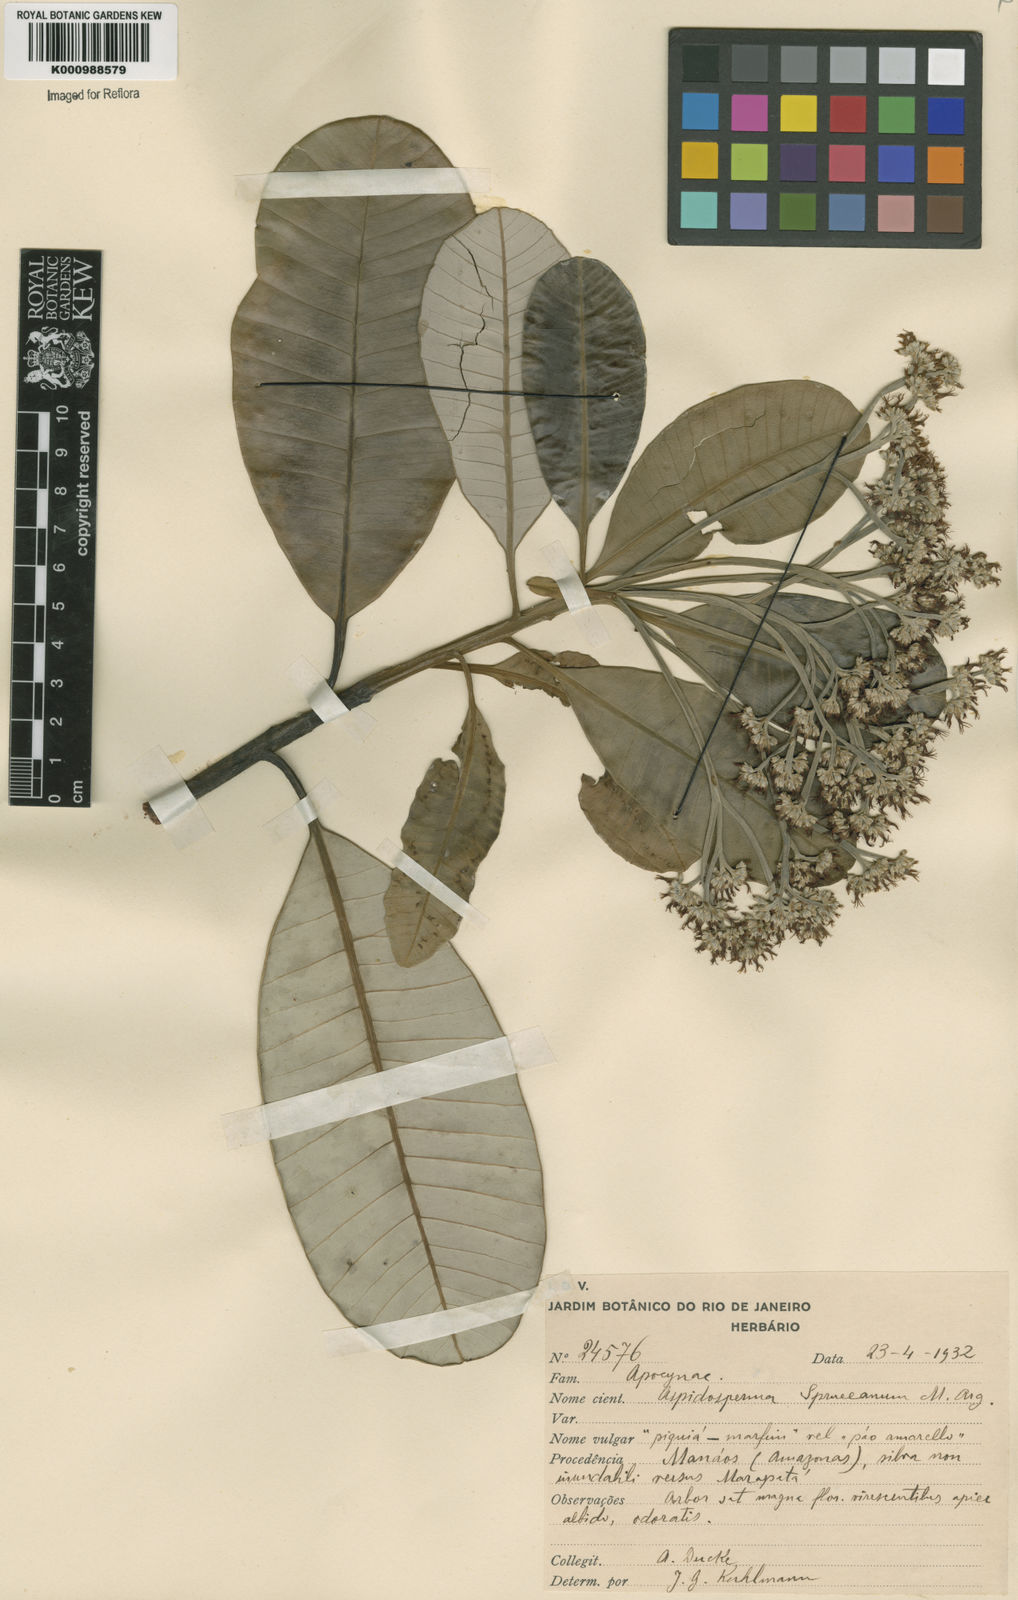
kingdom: Plantae
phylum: Tracheophyta
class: Magnoliopsida
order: Gentianales
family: Apocynaceae
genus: Aspidosperma
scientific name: Aspidosperma
